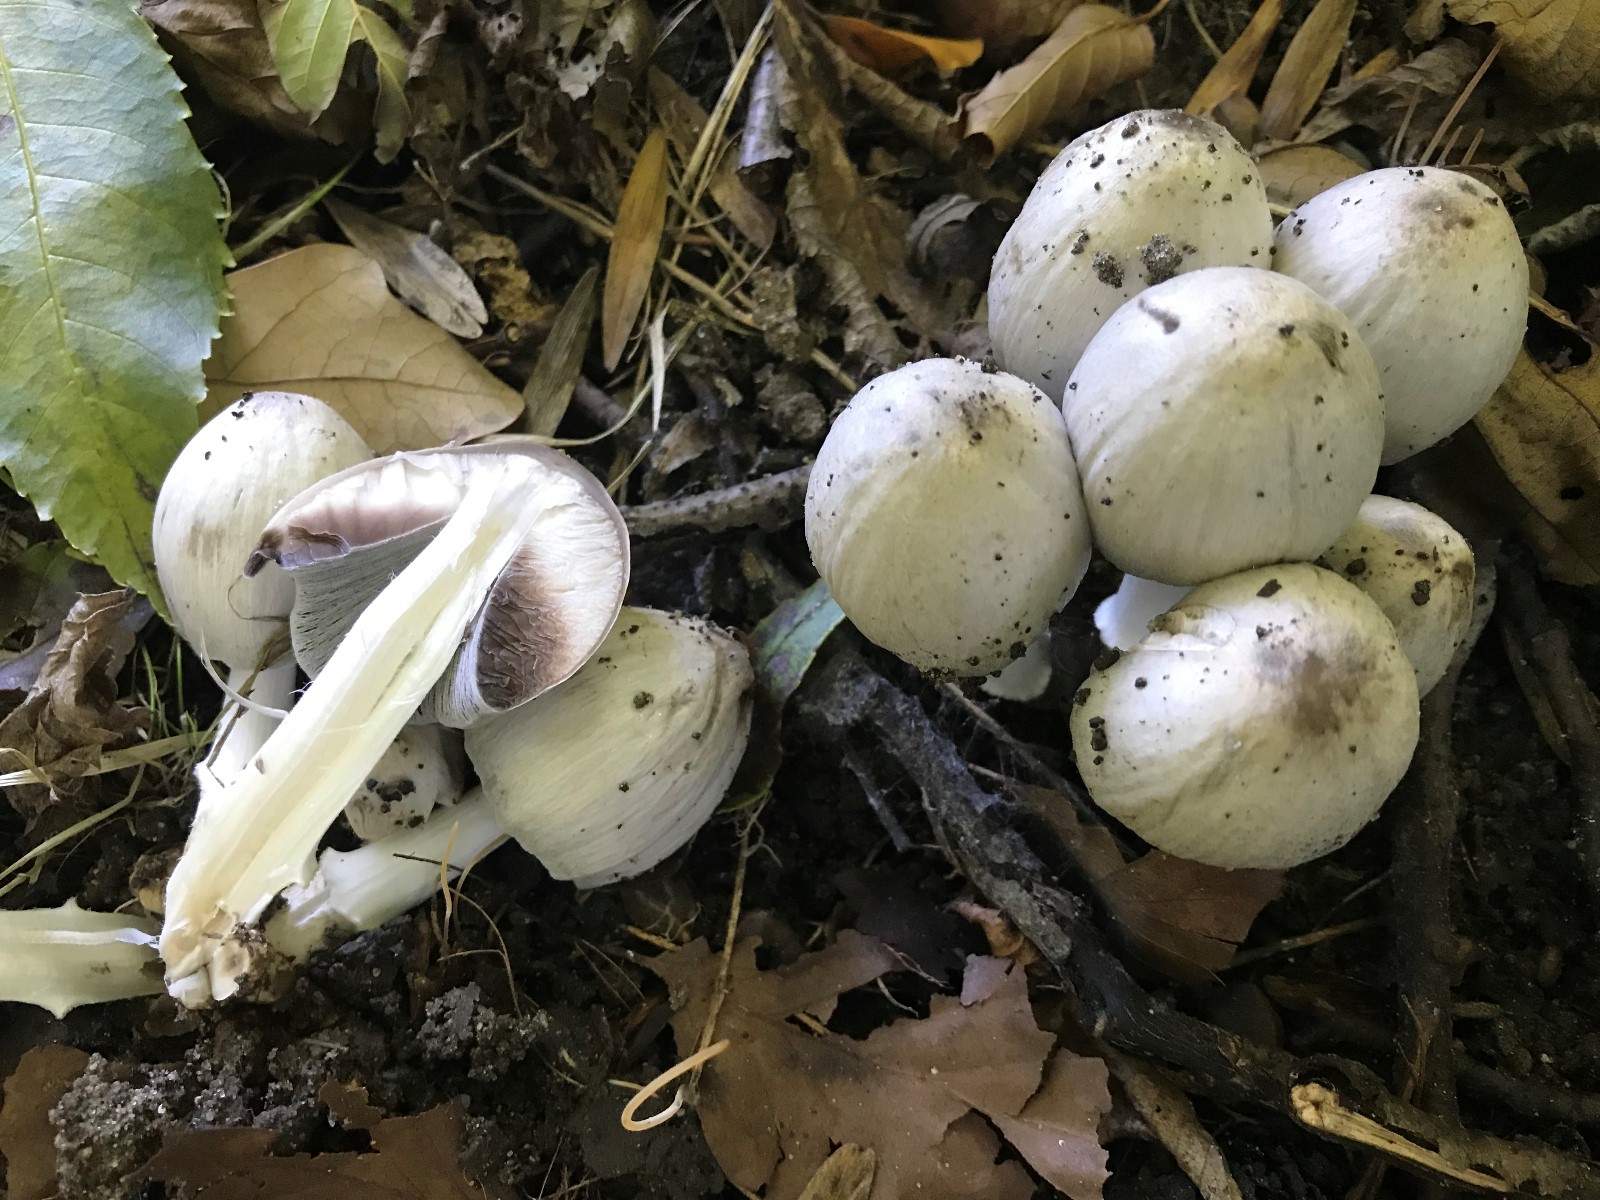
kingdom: Fungi
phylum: Basidiomycota
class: Agaricomycetes
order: Agaricales
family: Psathyrellaceae
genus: Coprinopsis
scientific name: Coprinopsis atramentaria
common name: almindelig blækhat
